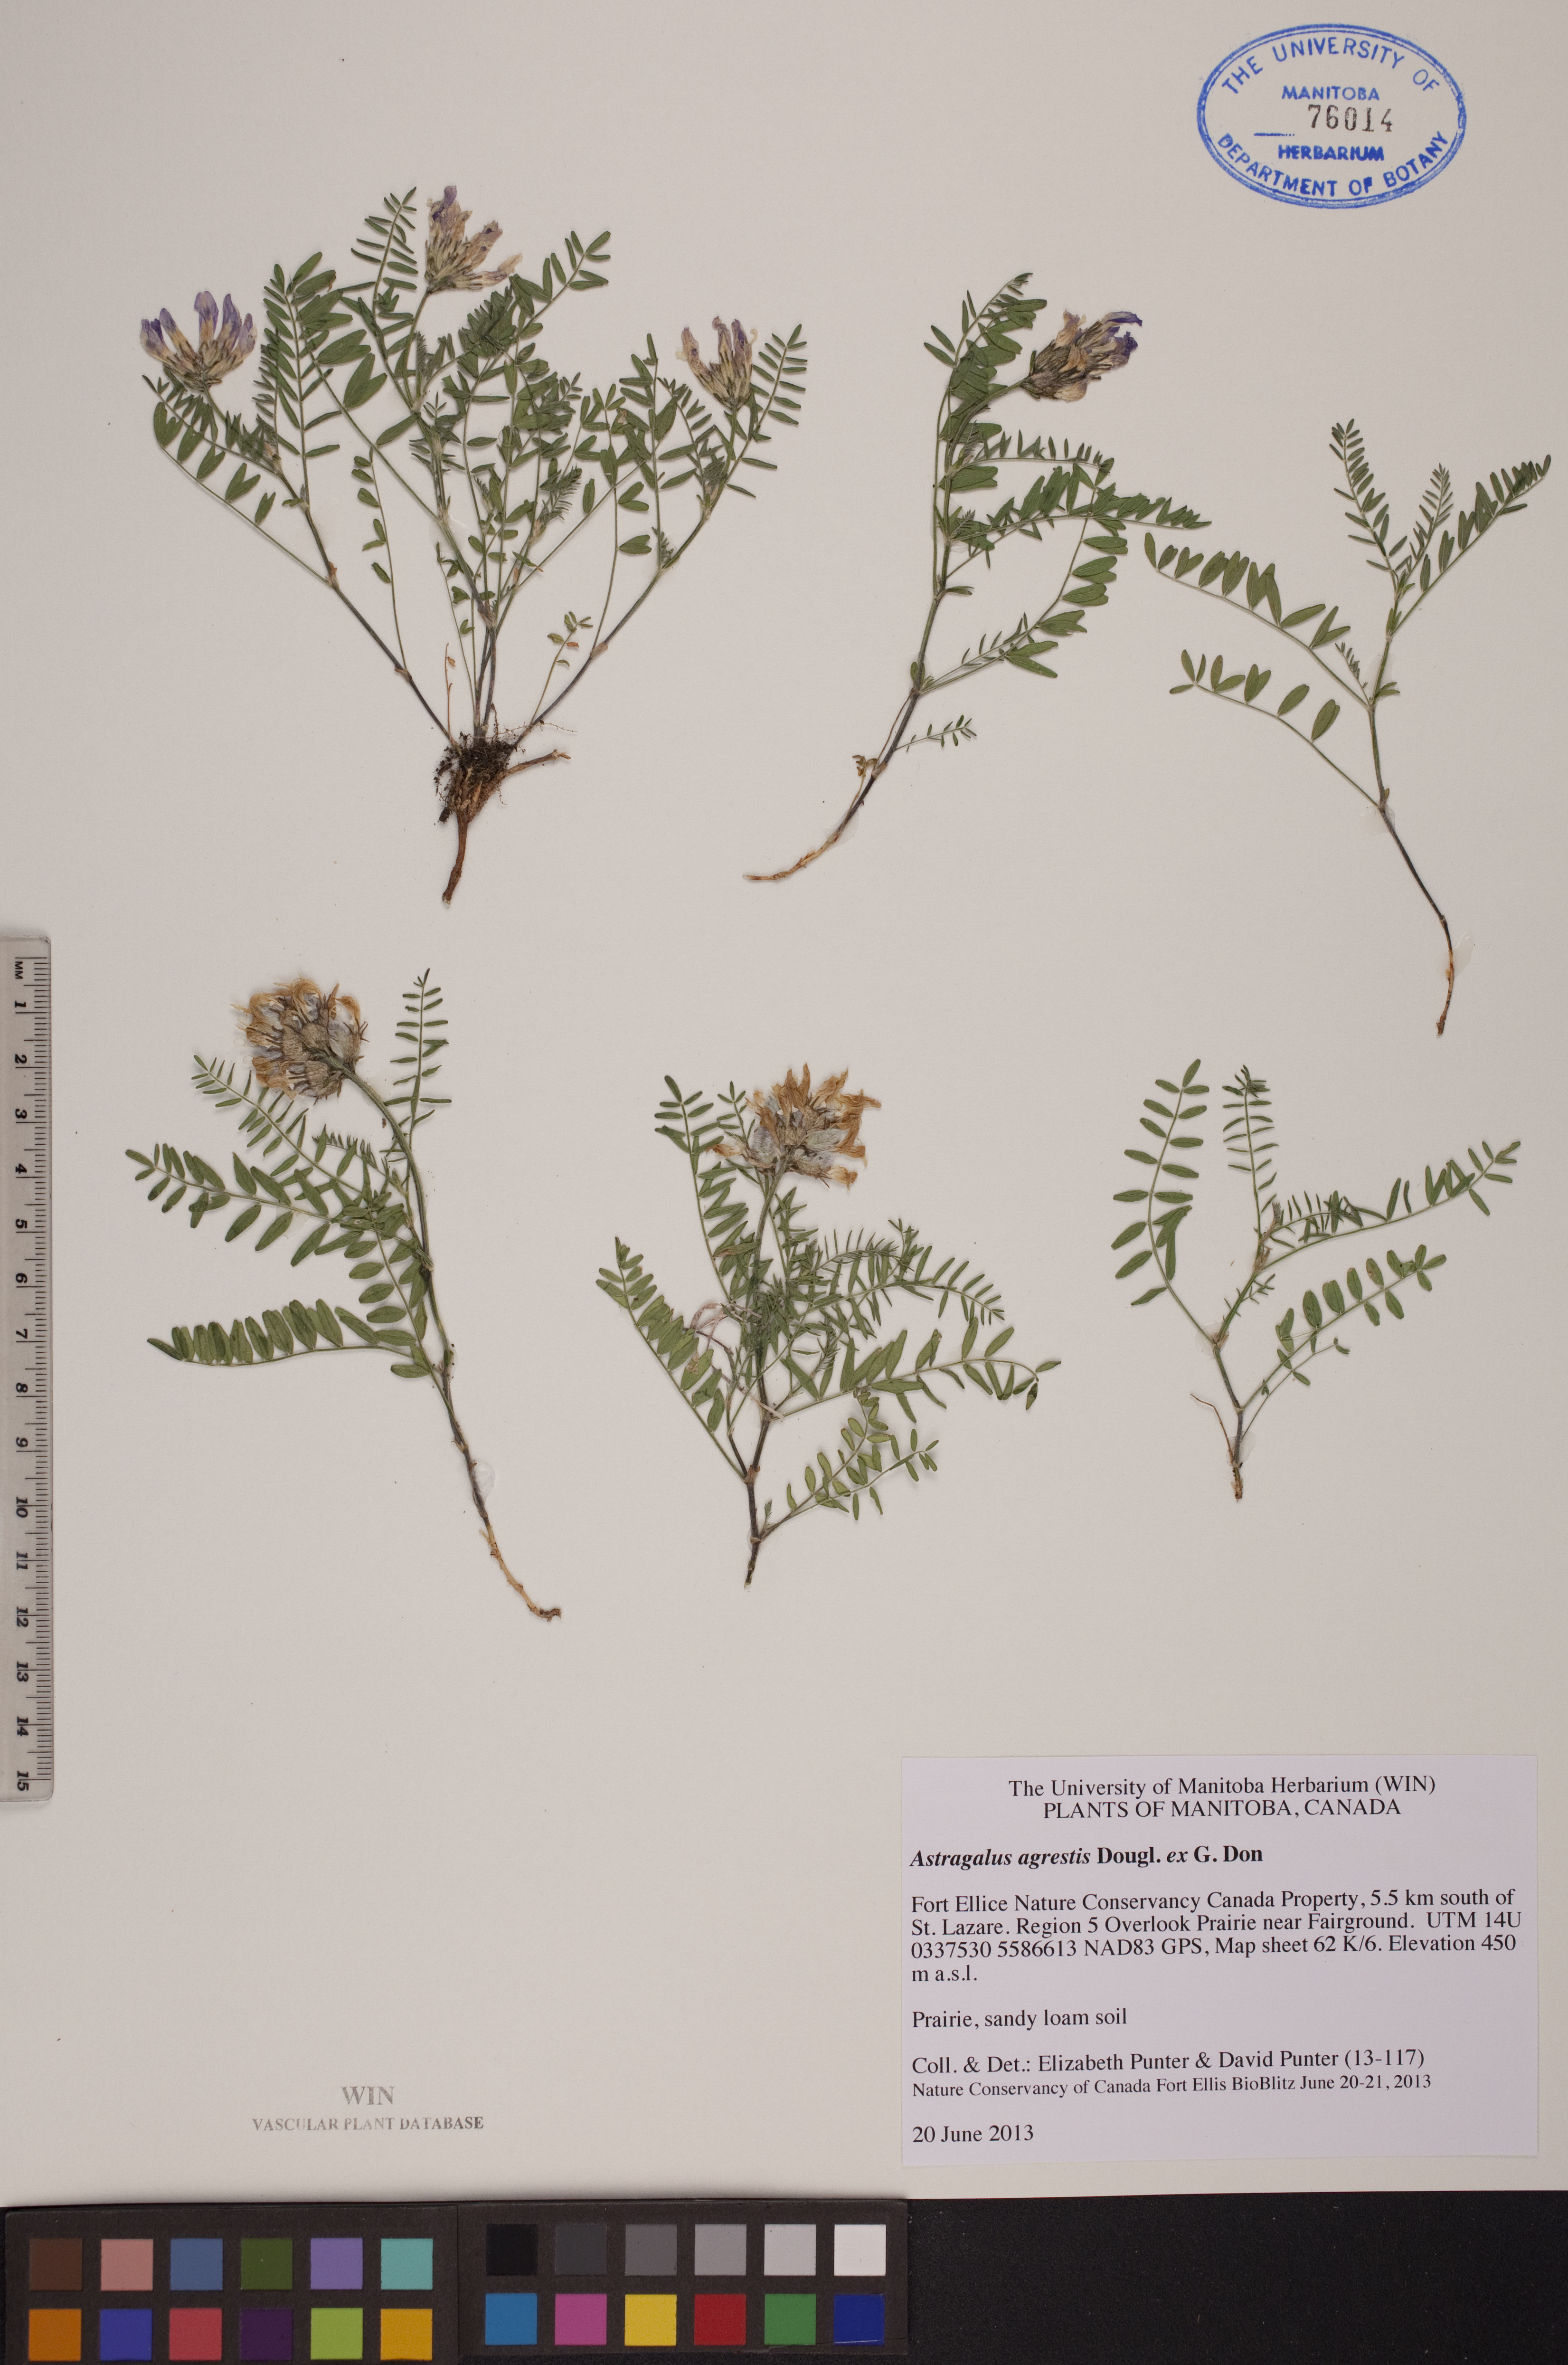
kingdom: Plantae
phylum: Tracheophyta
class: Magnoliopsida
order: Fabales
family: Fabaceae
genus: Astragalus
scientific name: Astragalus agrestis
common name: Field milk-vetch
